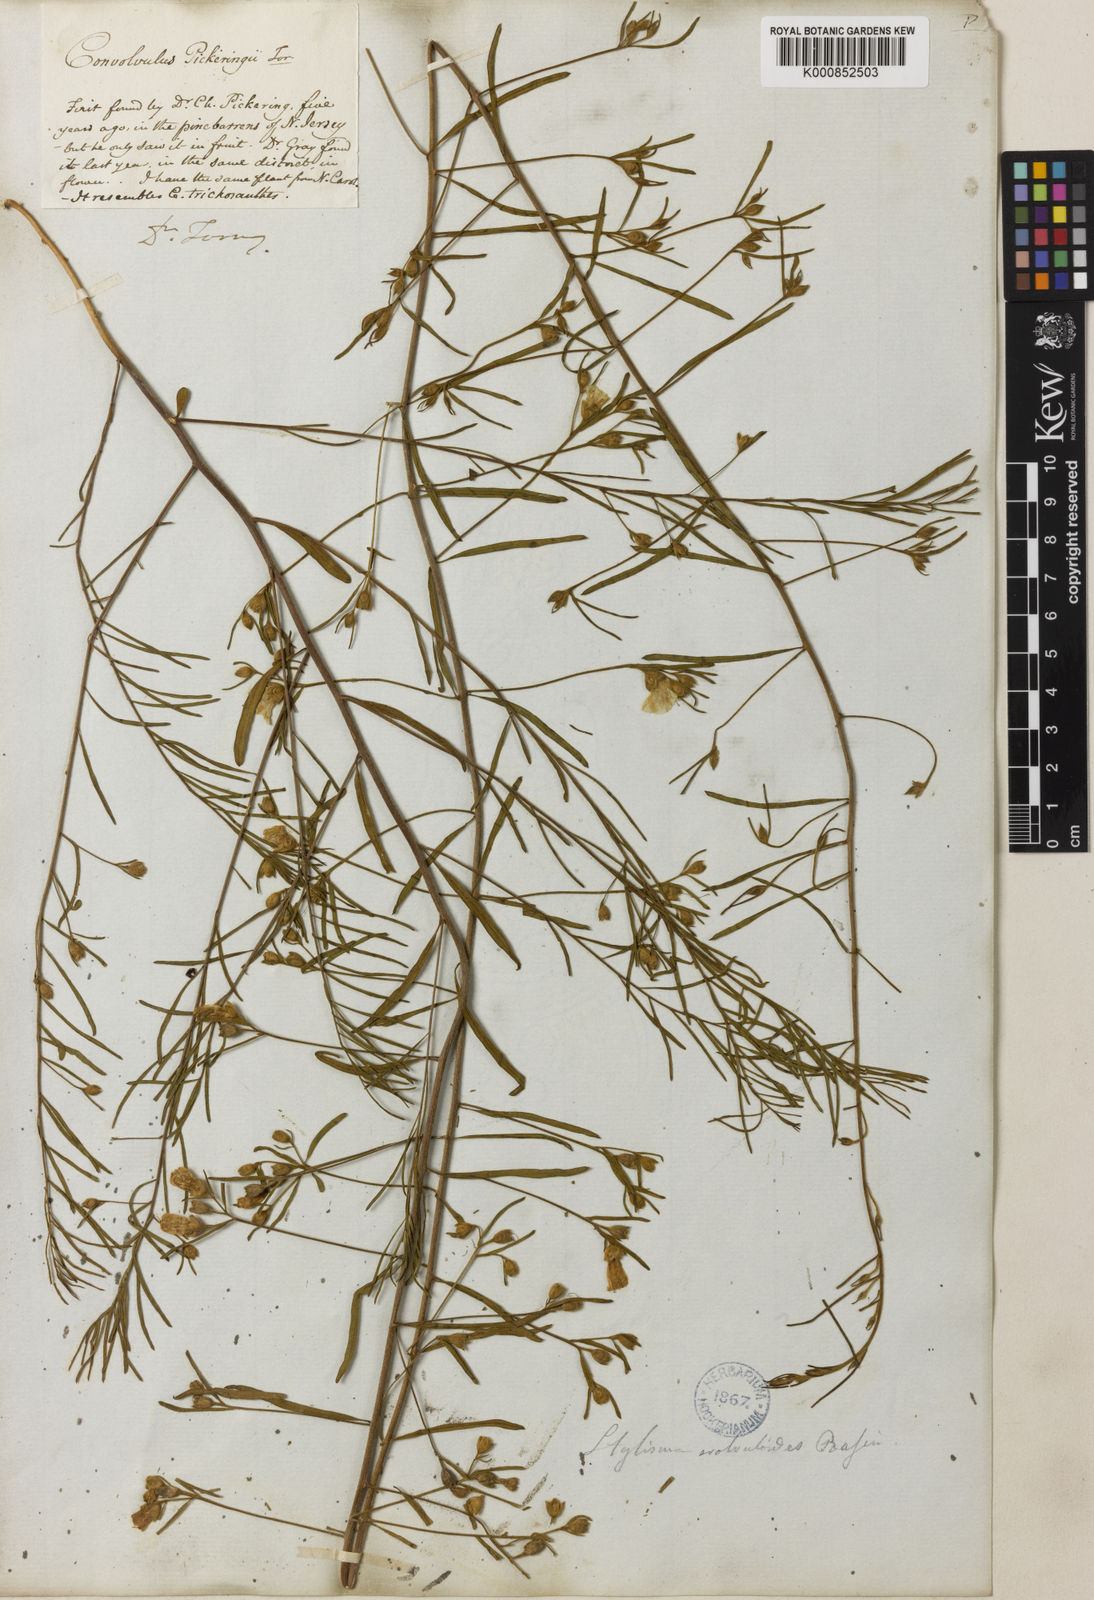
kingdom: Plantae
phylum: Tracheophyta
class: Magnoliopsida
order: Solanales
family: Convolvulaceae
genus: Stylisma
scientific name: Stylisma pickeringii
